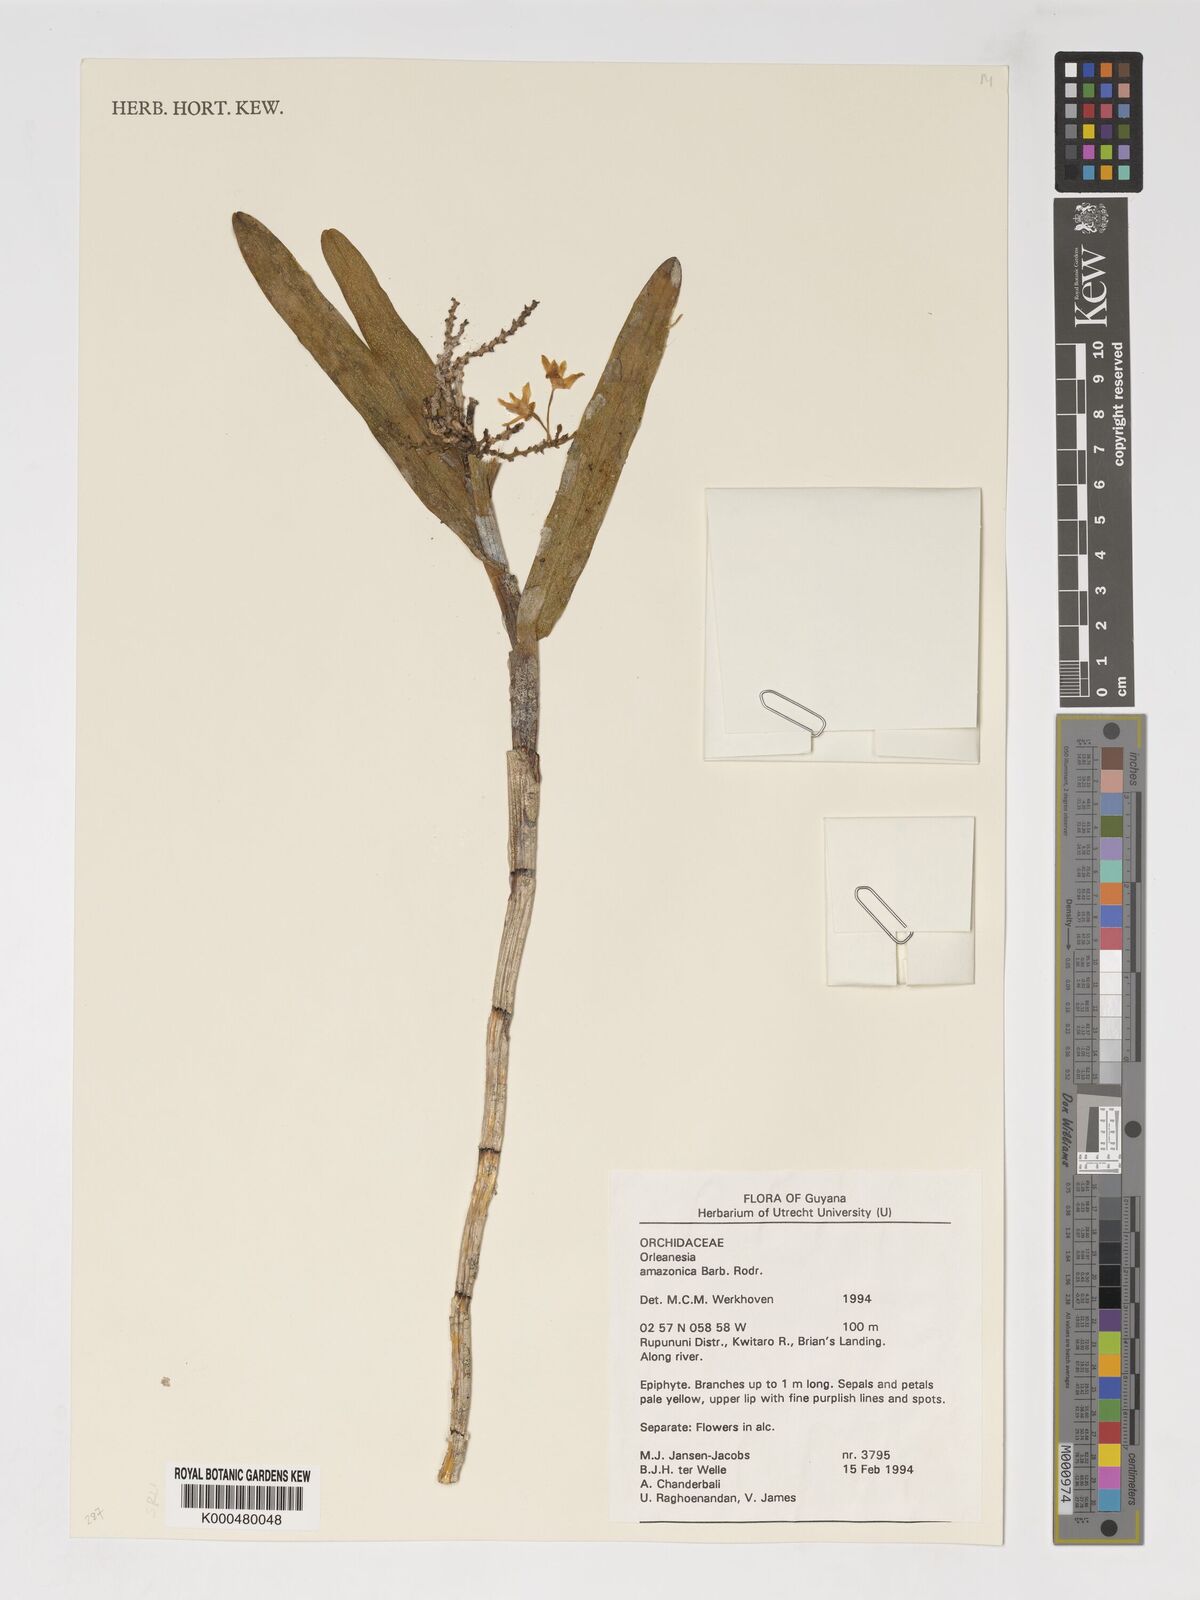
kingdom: Plantae
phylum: Tracheophyta
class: Liliopsida
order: Asparagales
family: Orchidaceae
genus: Orleanesia
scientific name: Orleanesia amazonica
